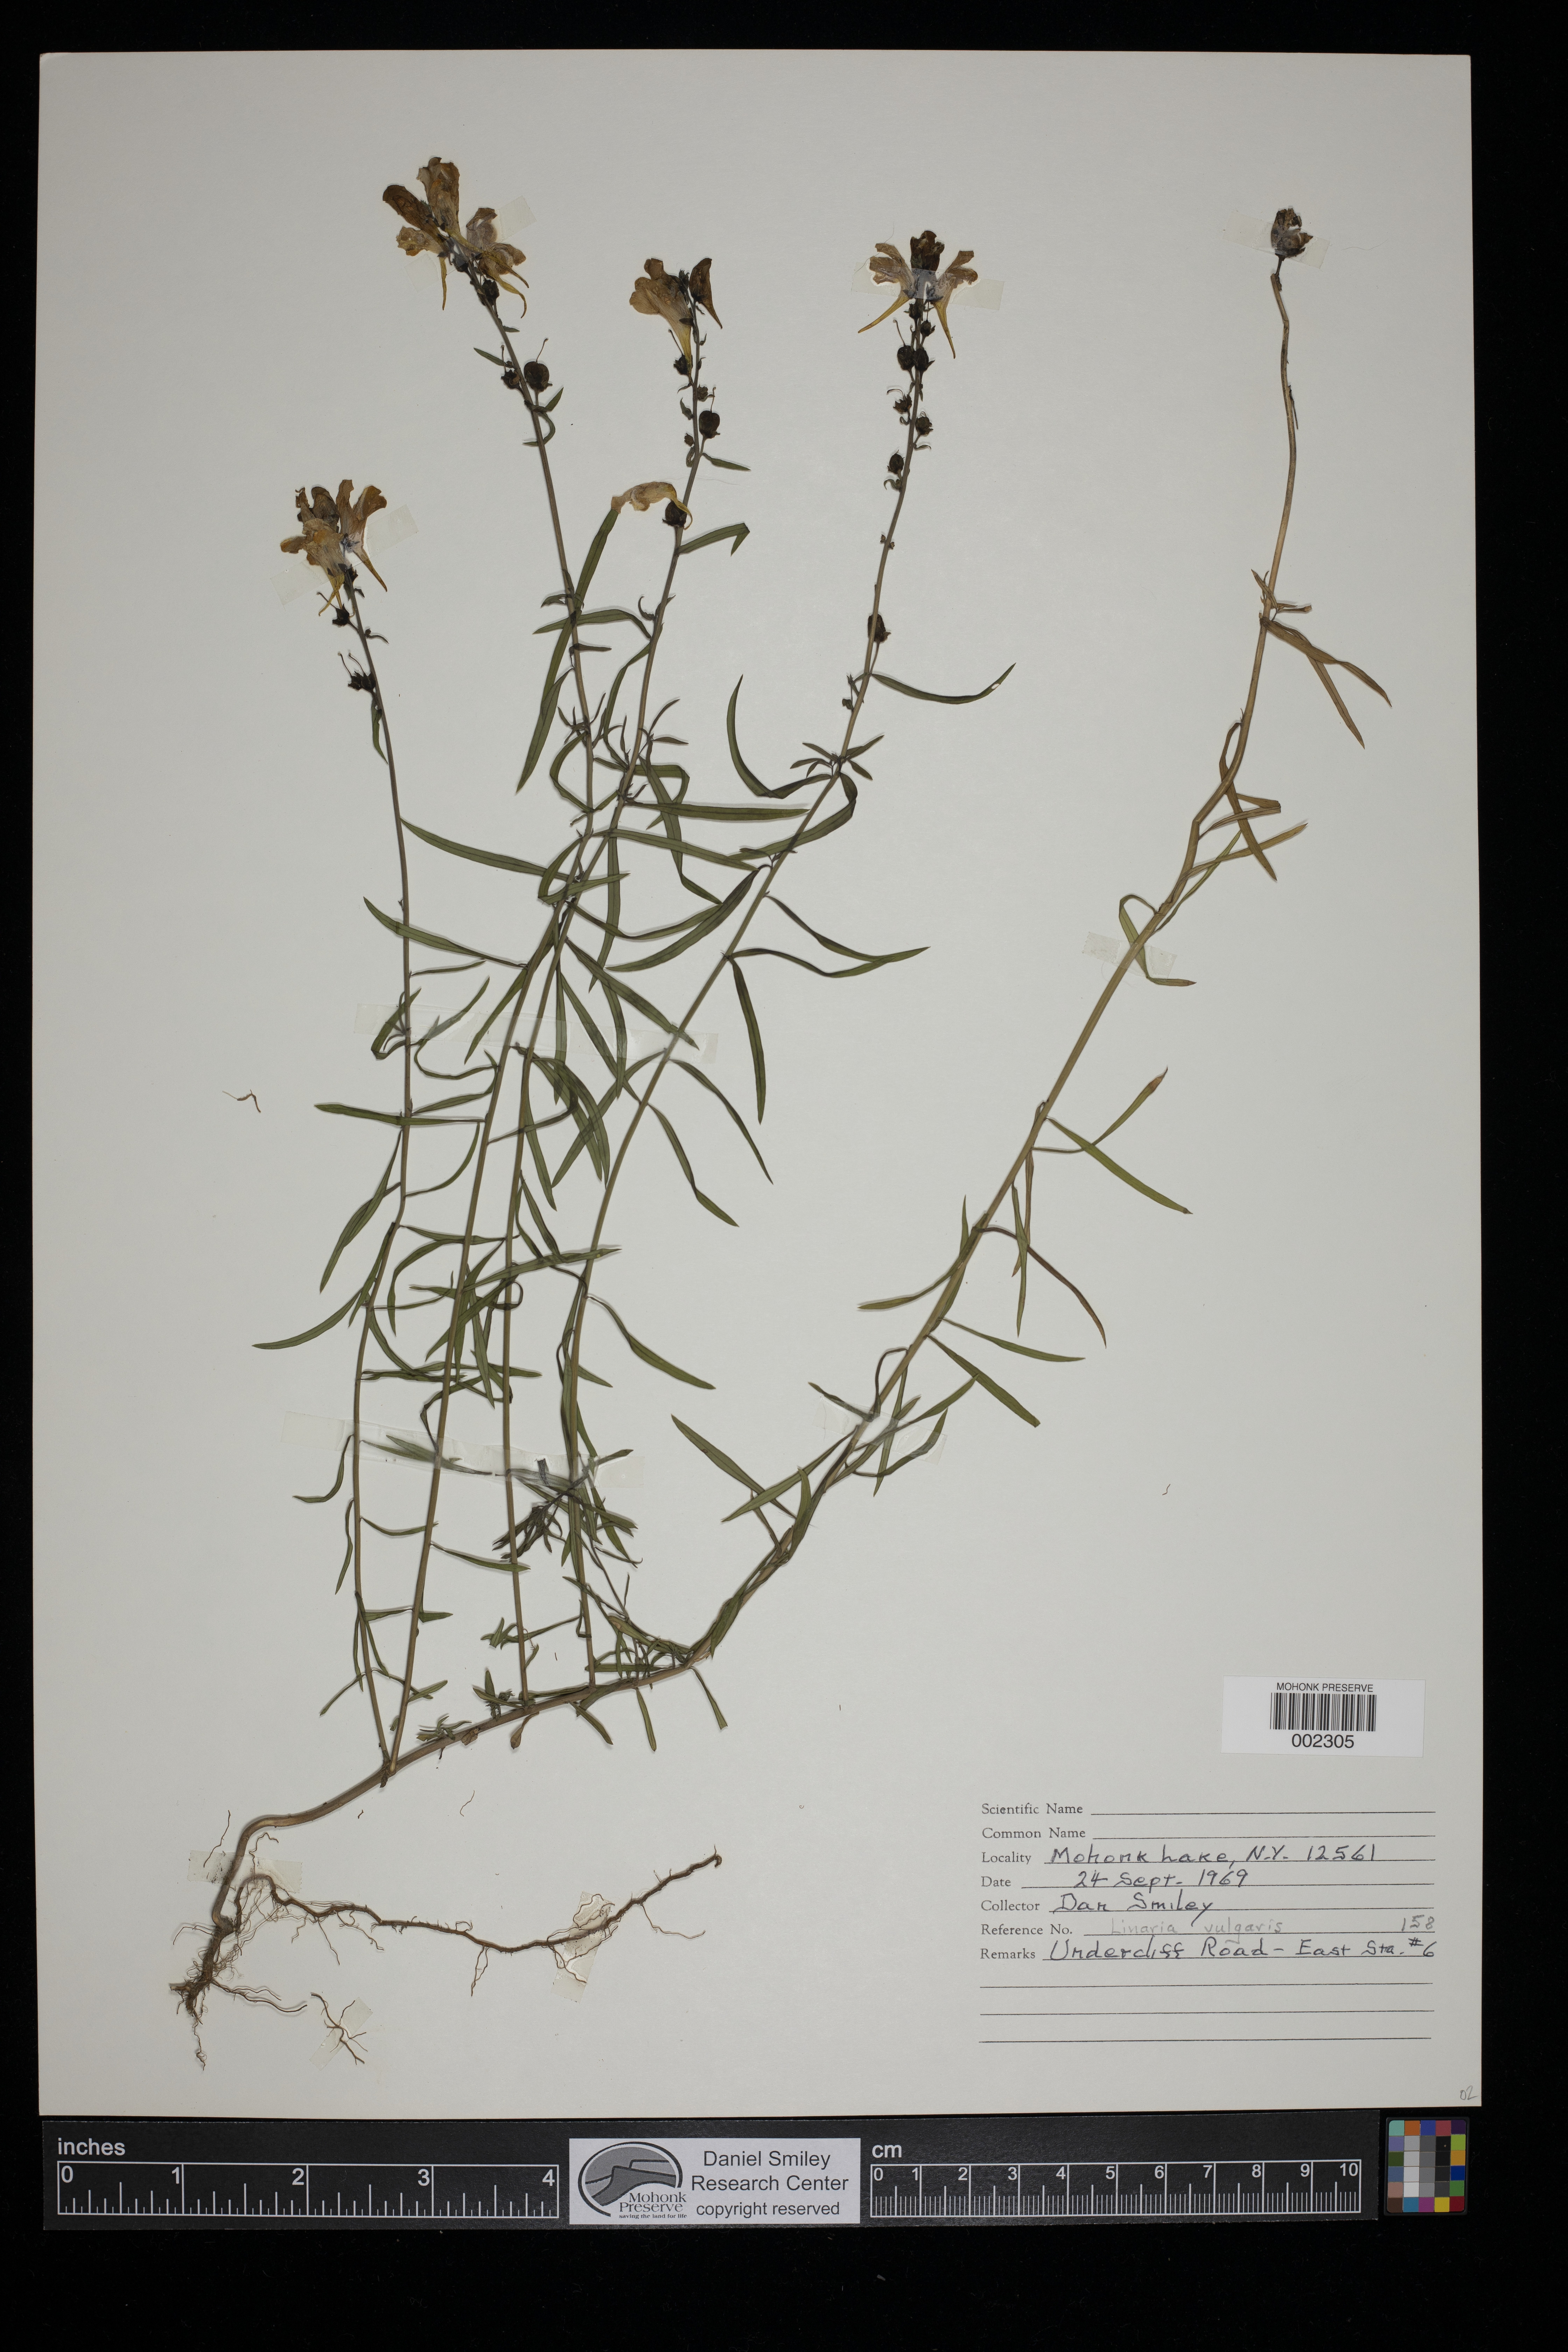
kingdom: Plantae
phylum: Tracheophyta
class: Magnoliopsida
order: Lamiales
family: Plantaginaceae
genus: Linaria
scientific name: Linaria vulgaris
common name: Butter and eggs
